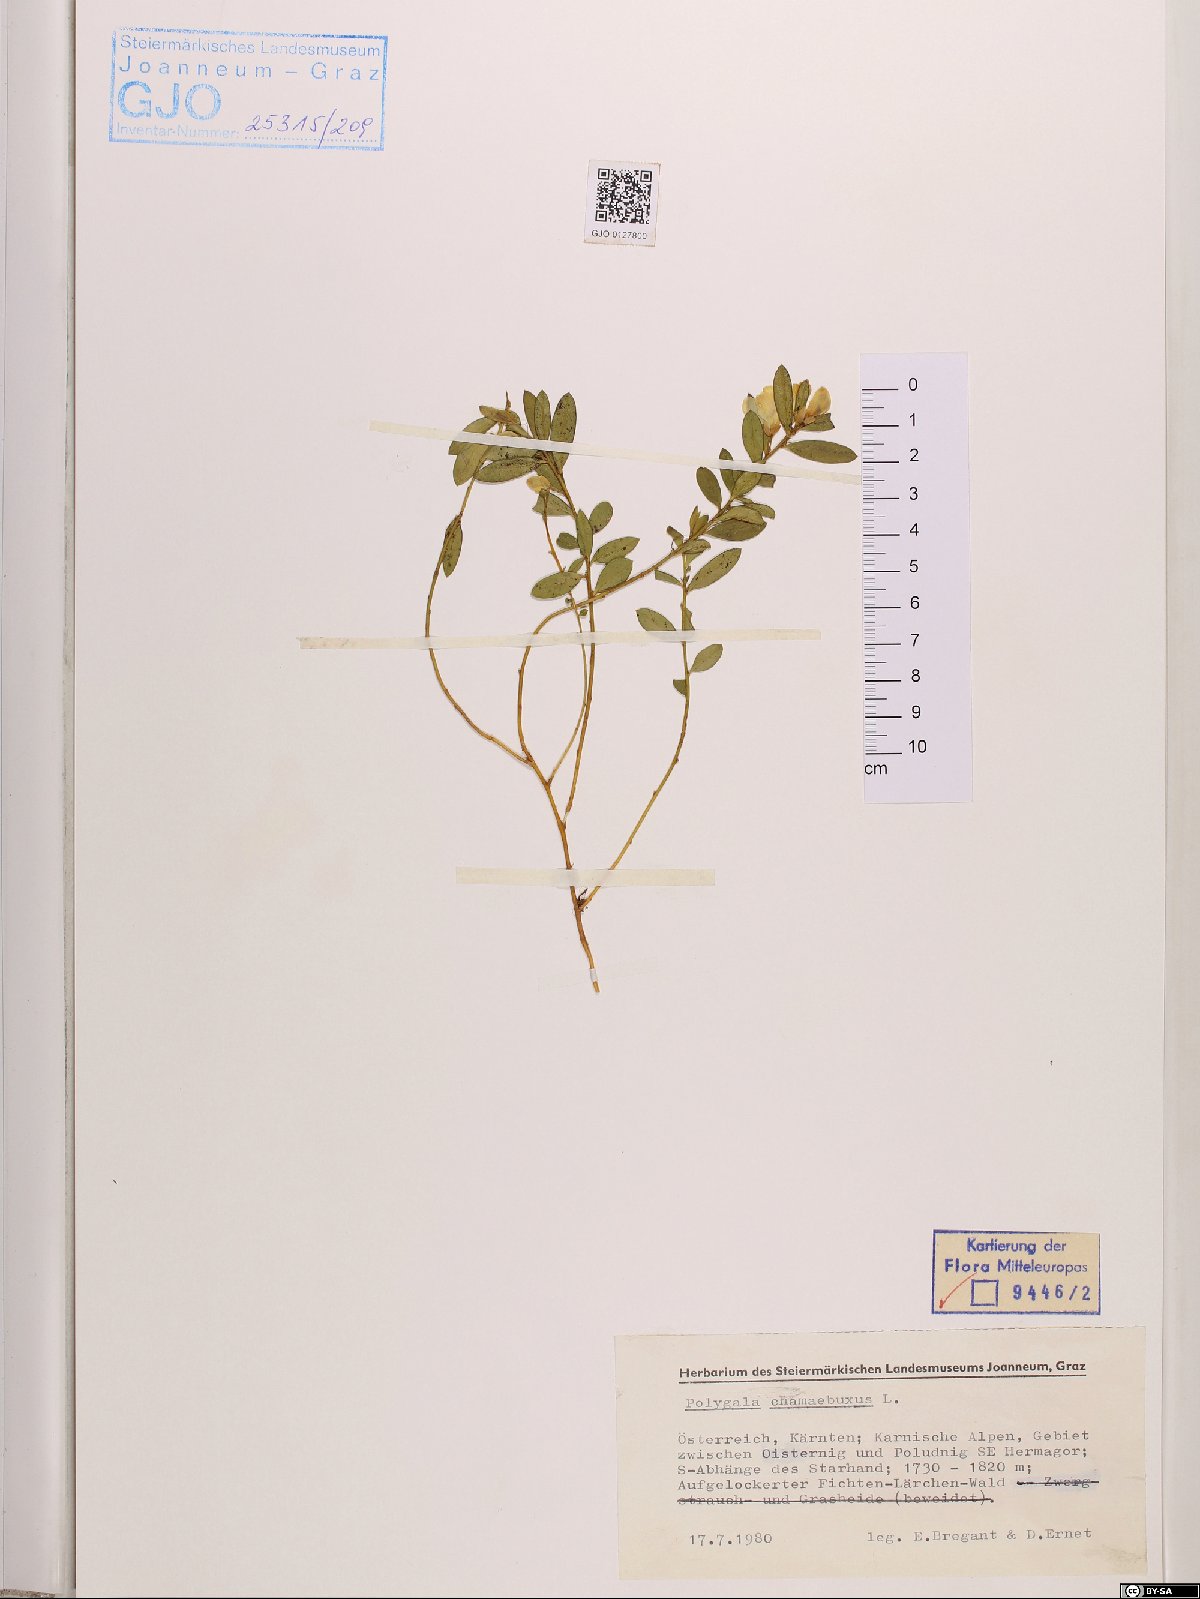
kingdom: Plantae
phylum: Tracheophyta
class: Magnoliopsida
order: Fabales
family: Polygalaceae
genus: Polygaloides
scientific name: Polygaloides chamaebuxus
